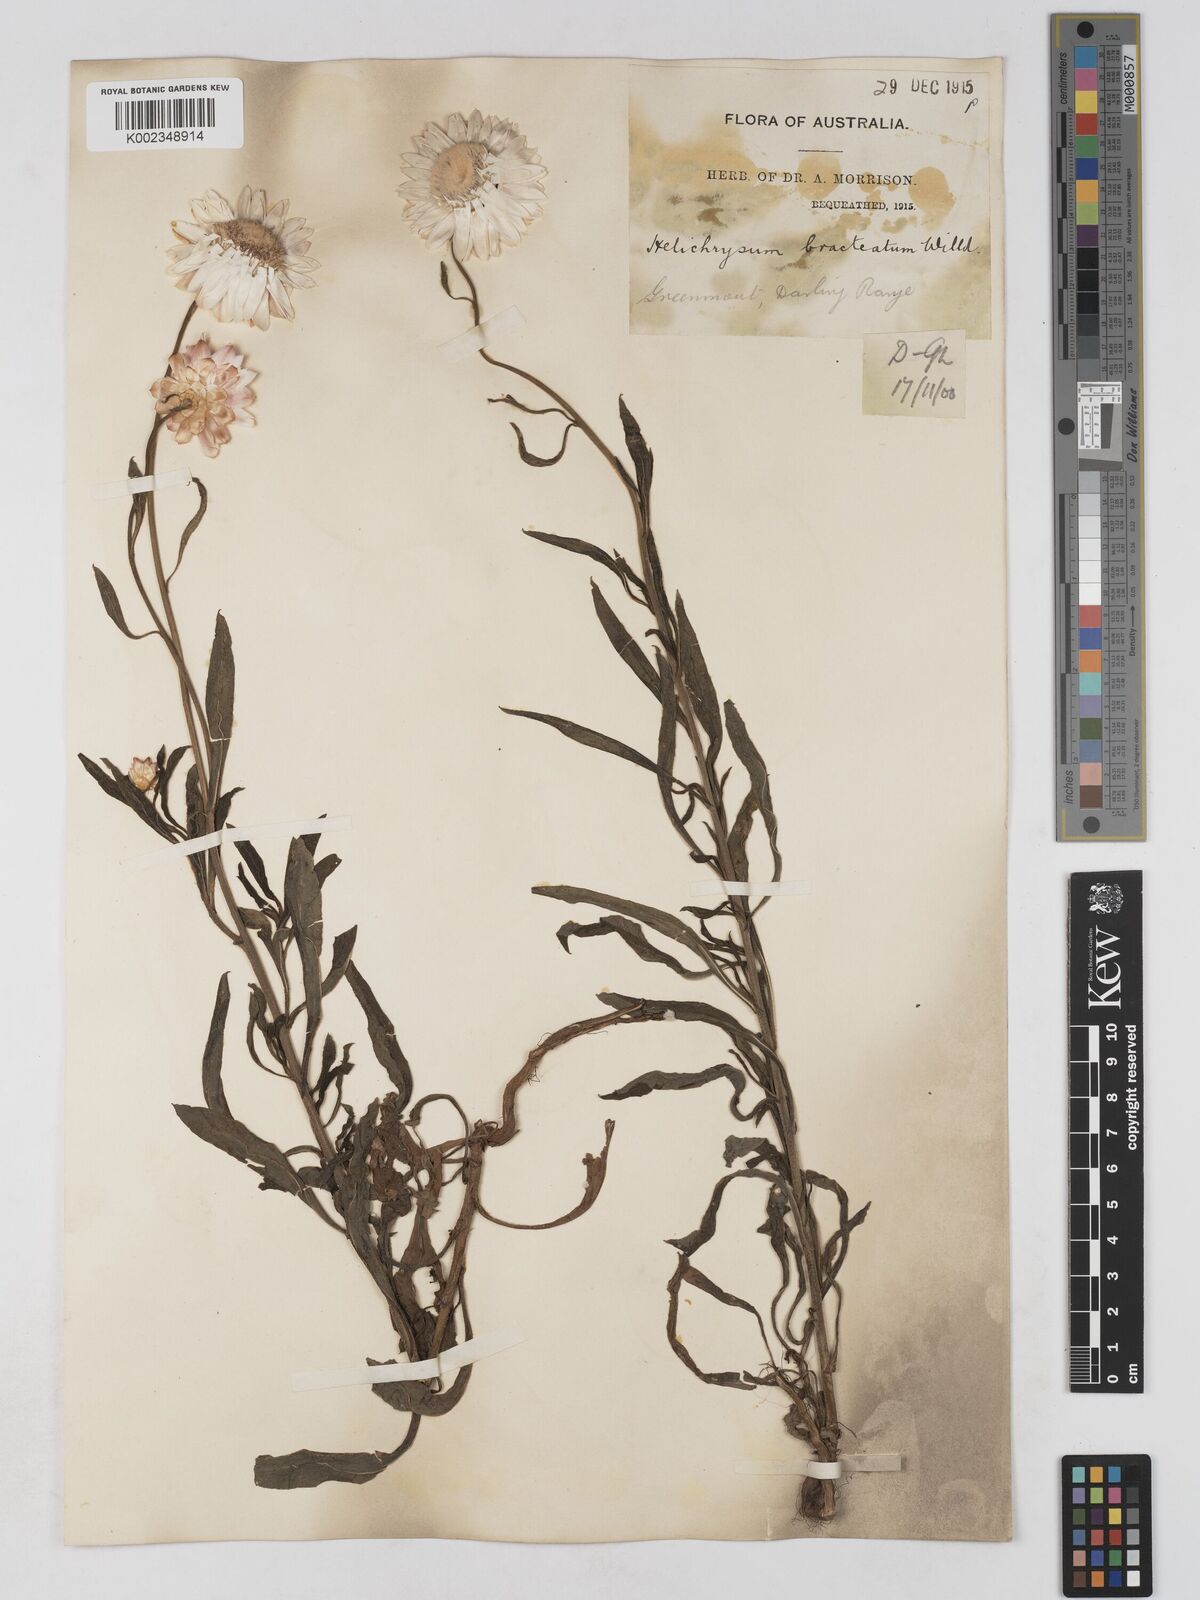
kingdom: Plantae
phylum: Tracheophyta
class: Magnoliopsida
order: Asterales
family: Asteraceae
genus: Xerochrysum
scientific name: Xerochrysum bracteatum
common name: Bracted strawflower
